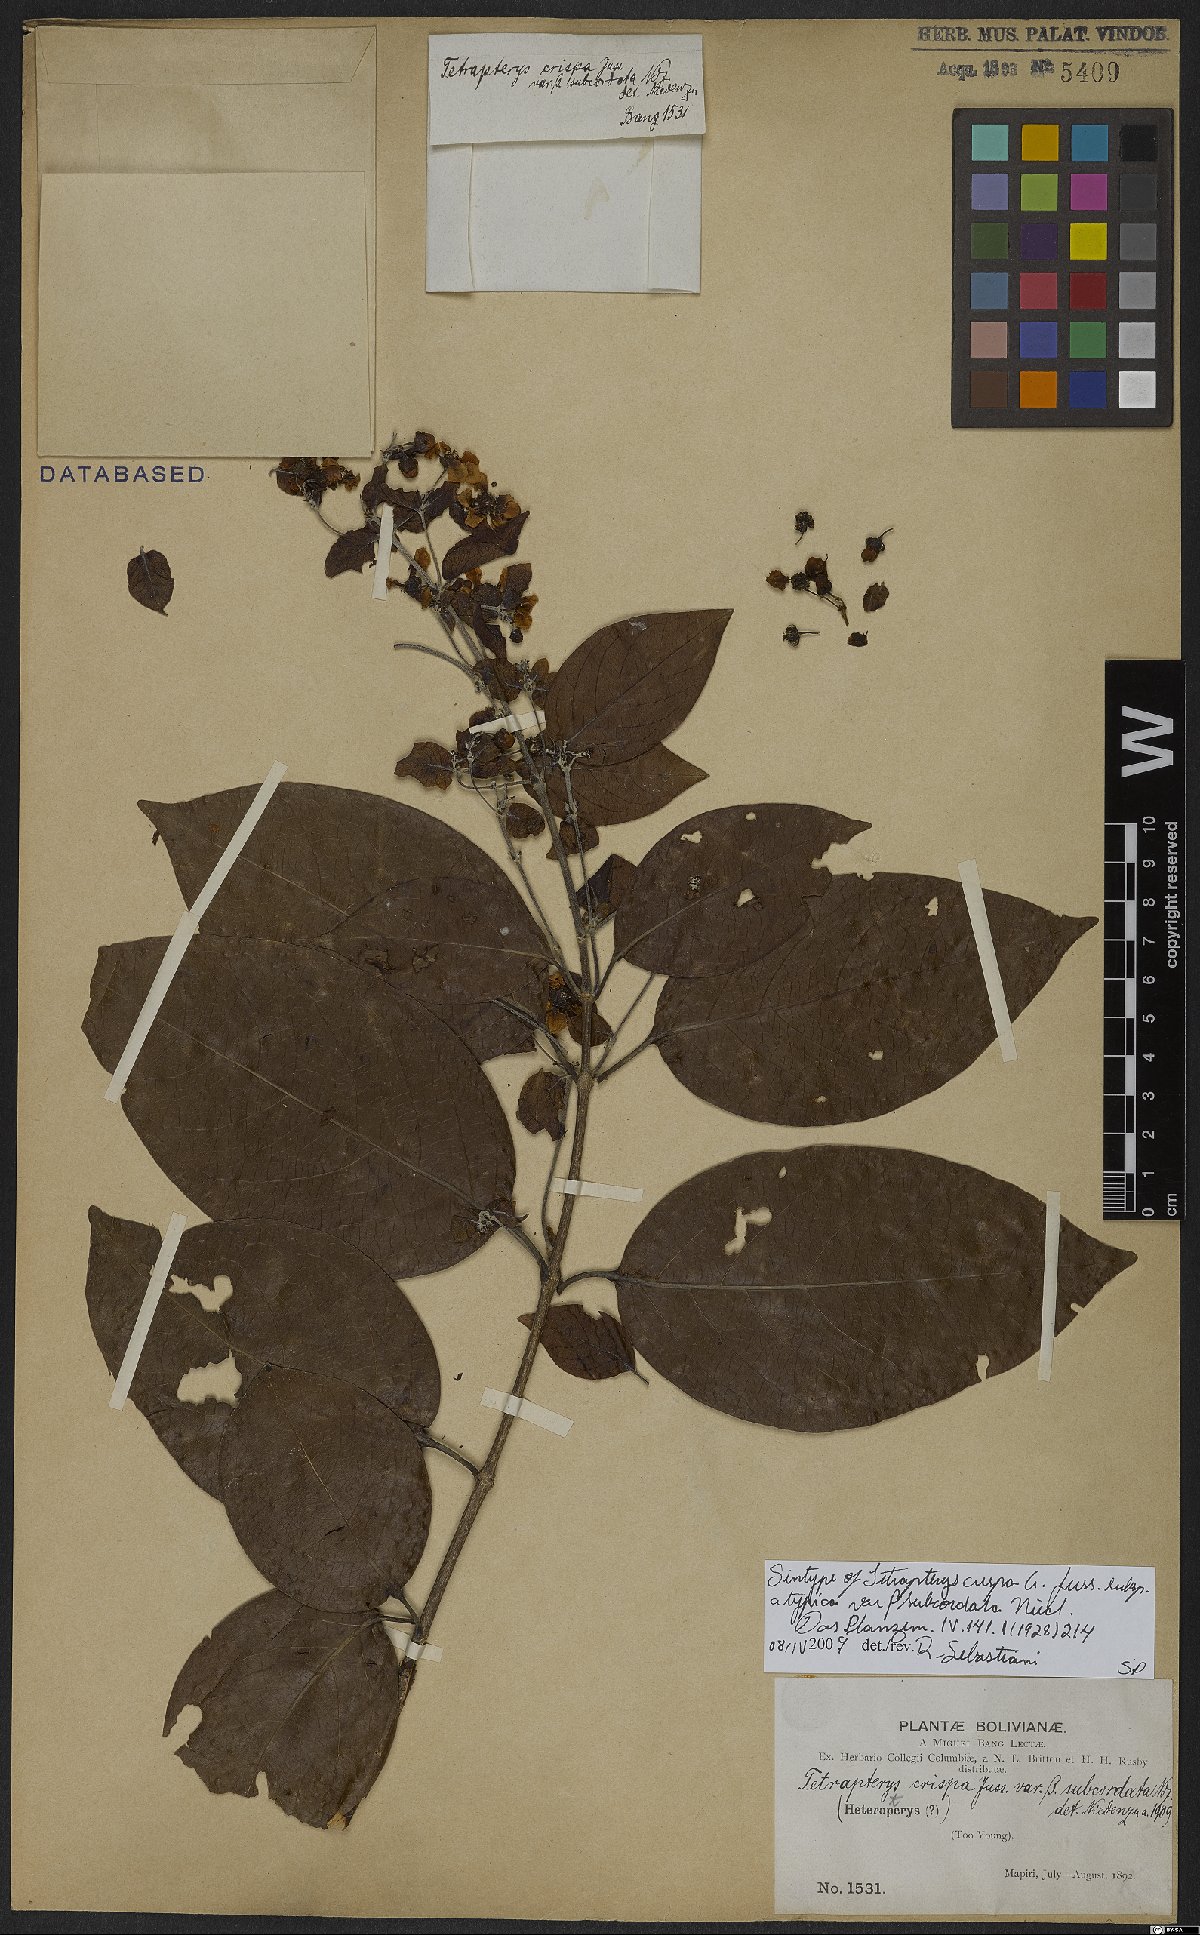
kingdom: Plantae
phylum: Tracheophyta
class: Magnoliopsida
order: Malpighiales
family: Malpighiaceae
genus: Tetrapterys
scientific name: Tetrapterys crispa
